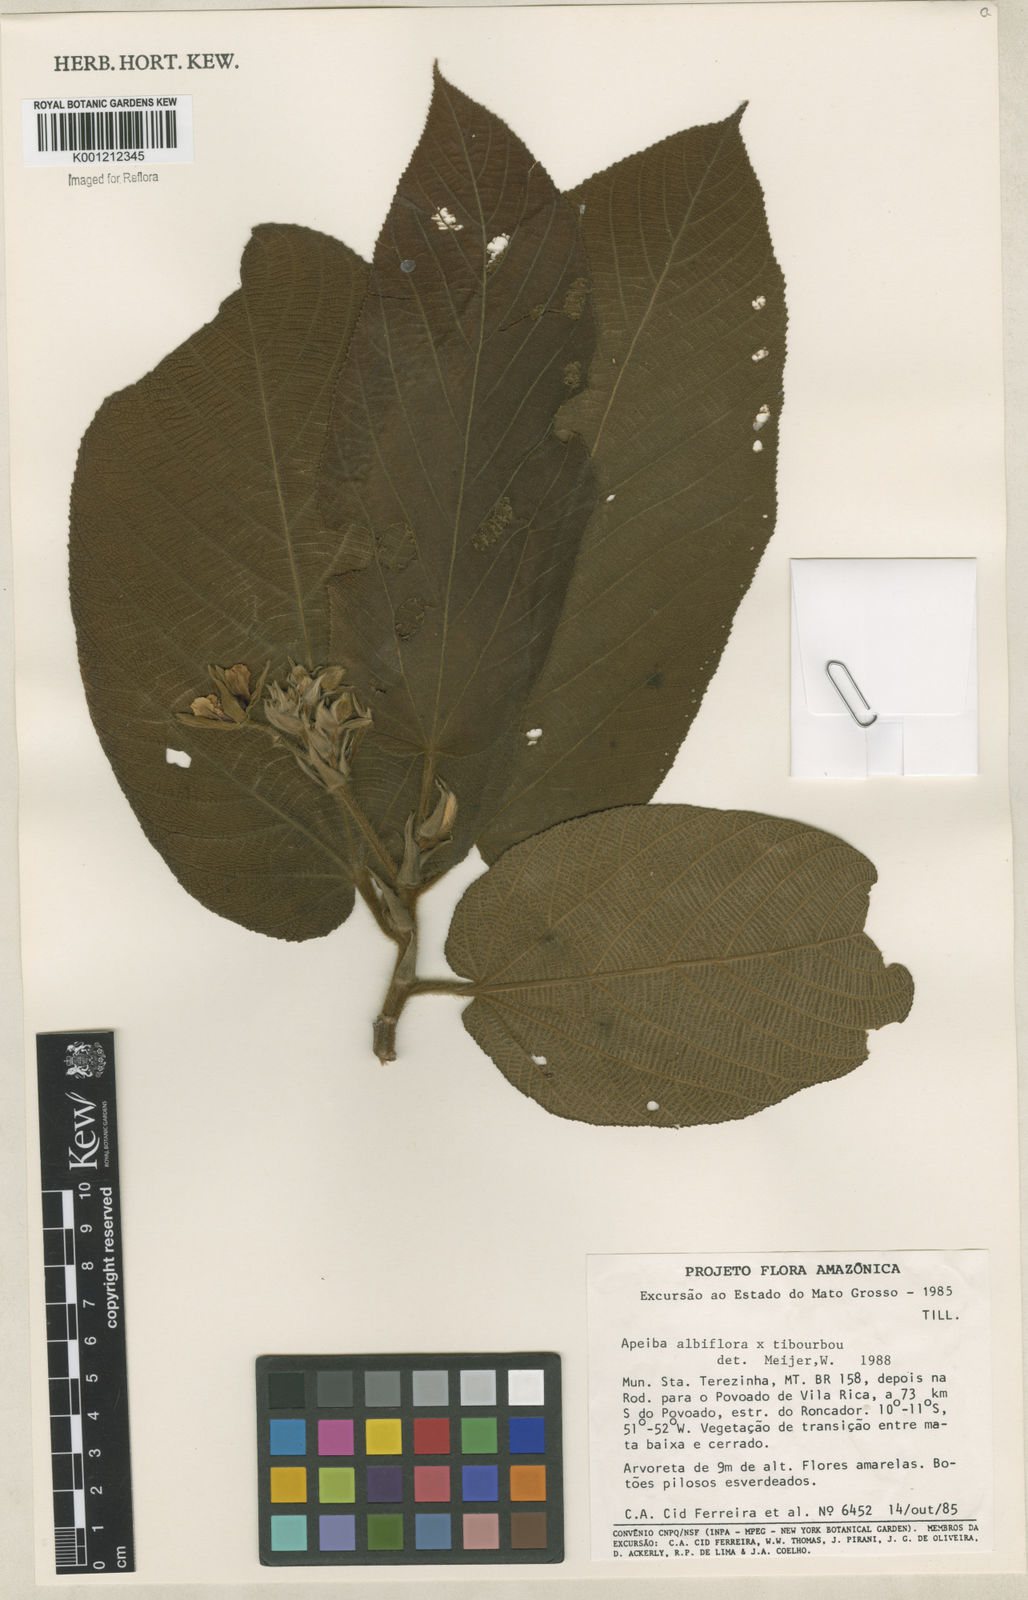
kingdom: Plantae
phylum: Tracheophyta
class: Magnoliopsida
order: Malvales
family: Malvaceae
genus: Apeiba
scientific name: Apeiba
